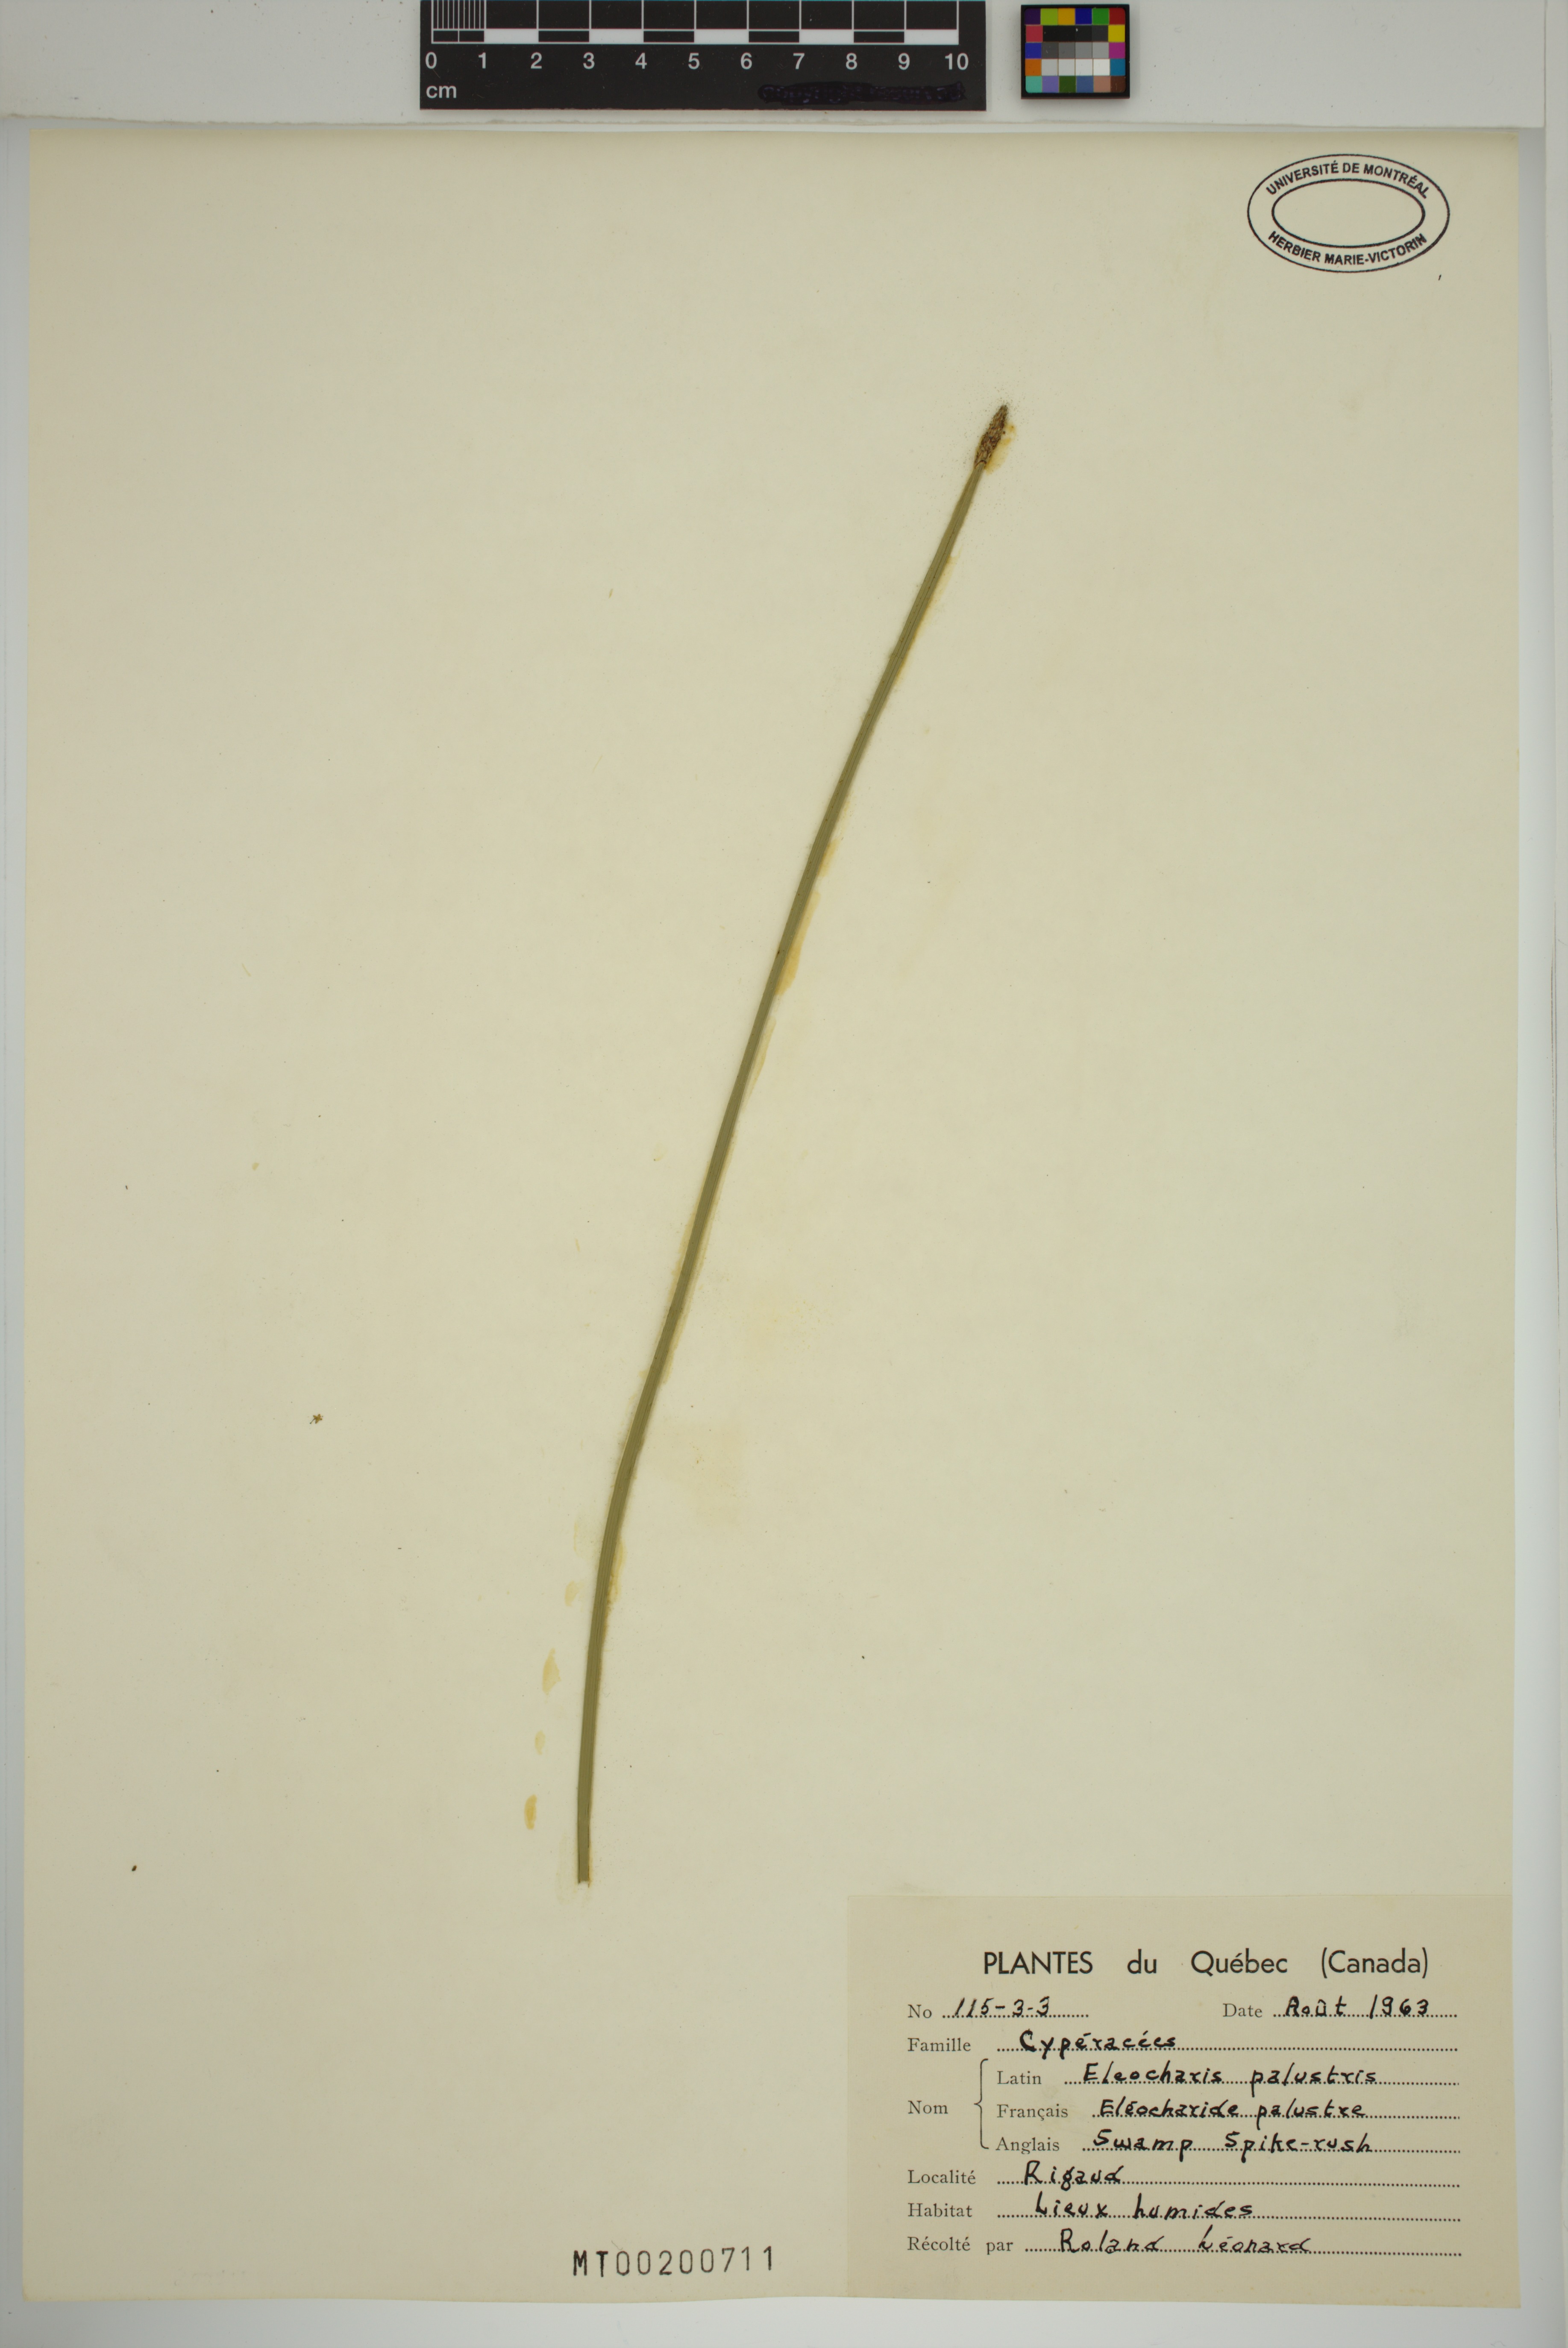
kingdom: Plantae
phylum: Tracheophyta
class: Liliopsida
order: Poales
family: Cyperaceae
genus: Eleocharis
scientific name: Eleocharis palustris
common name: Common spike-rush
